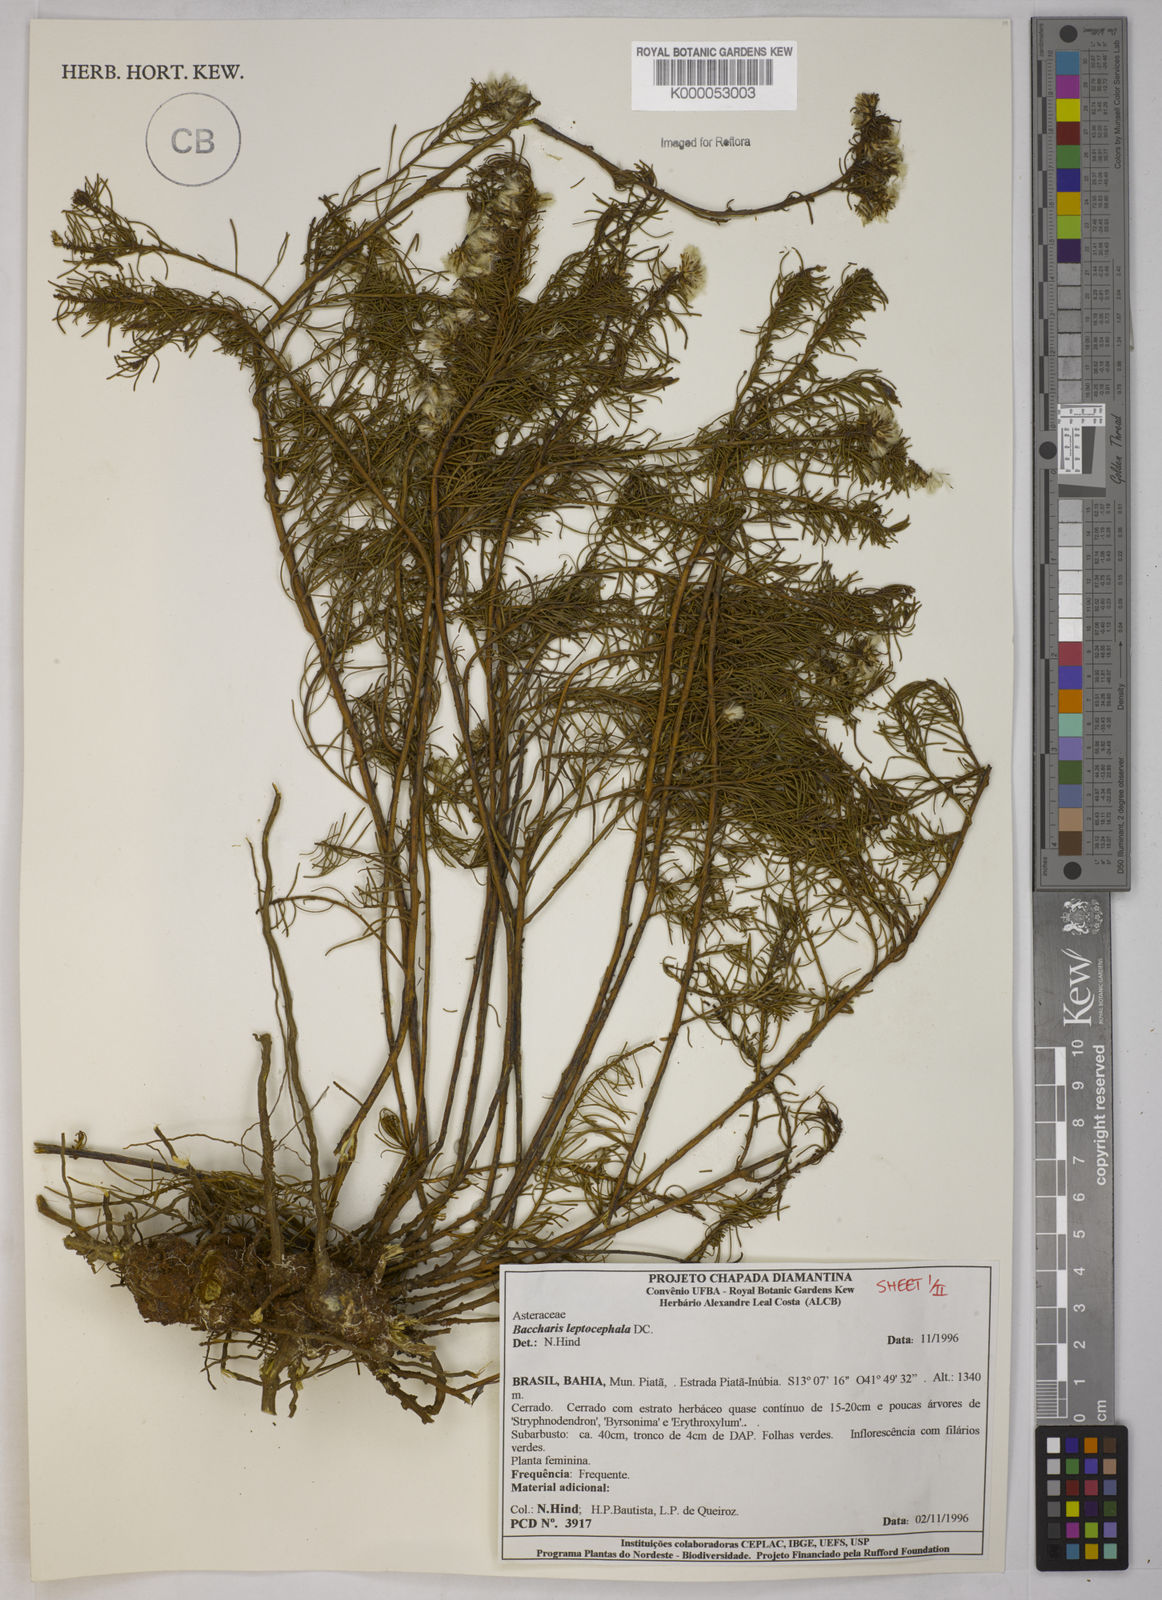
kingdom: Plantae
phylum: Tracheophyta
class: Magnoliopsida
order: Asterales
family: Asteraceae
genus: Baccharis
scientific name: Baccharis leptocephala
